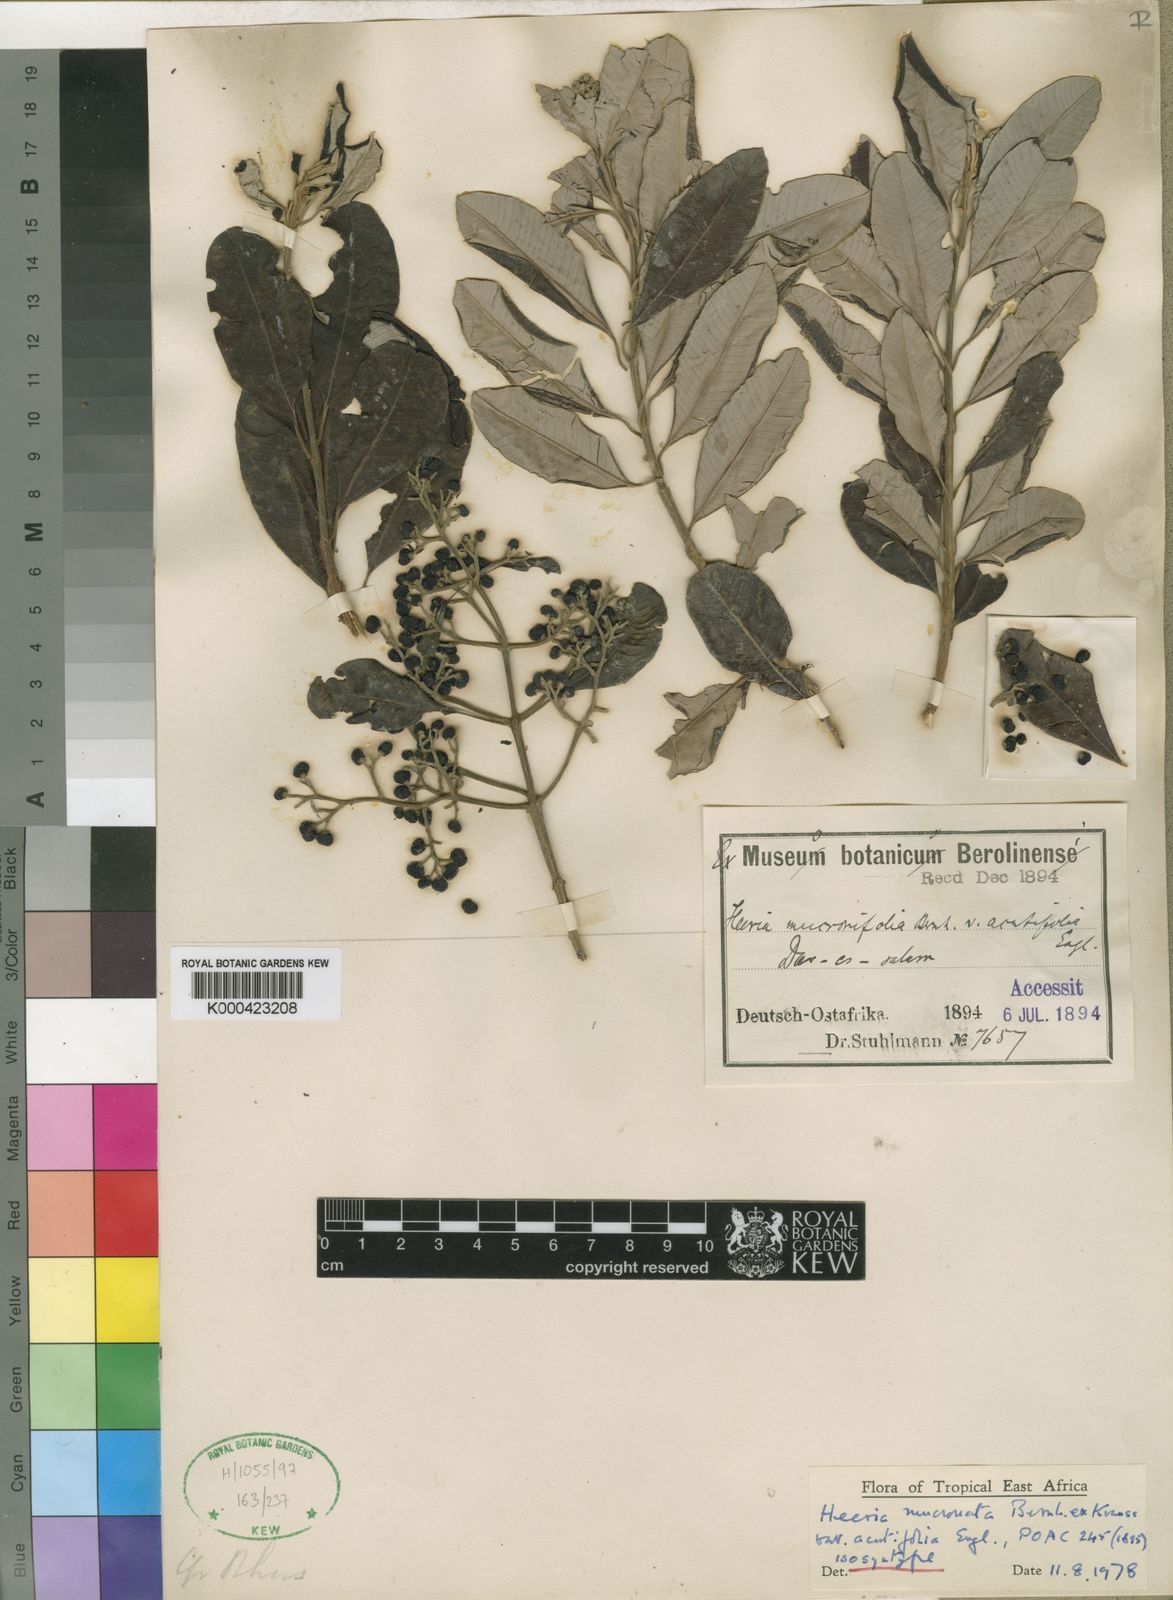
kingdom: Plantae
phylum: Tracheophyta
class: Magnoliopsida
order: Sapindales
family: Anacardiaceae
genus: Ozoroa
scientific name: Ozoroa obovata
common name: Broad-leaved resin tree
